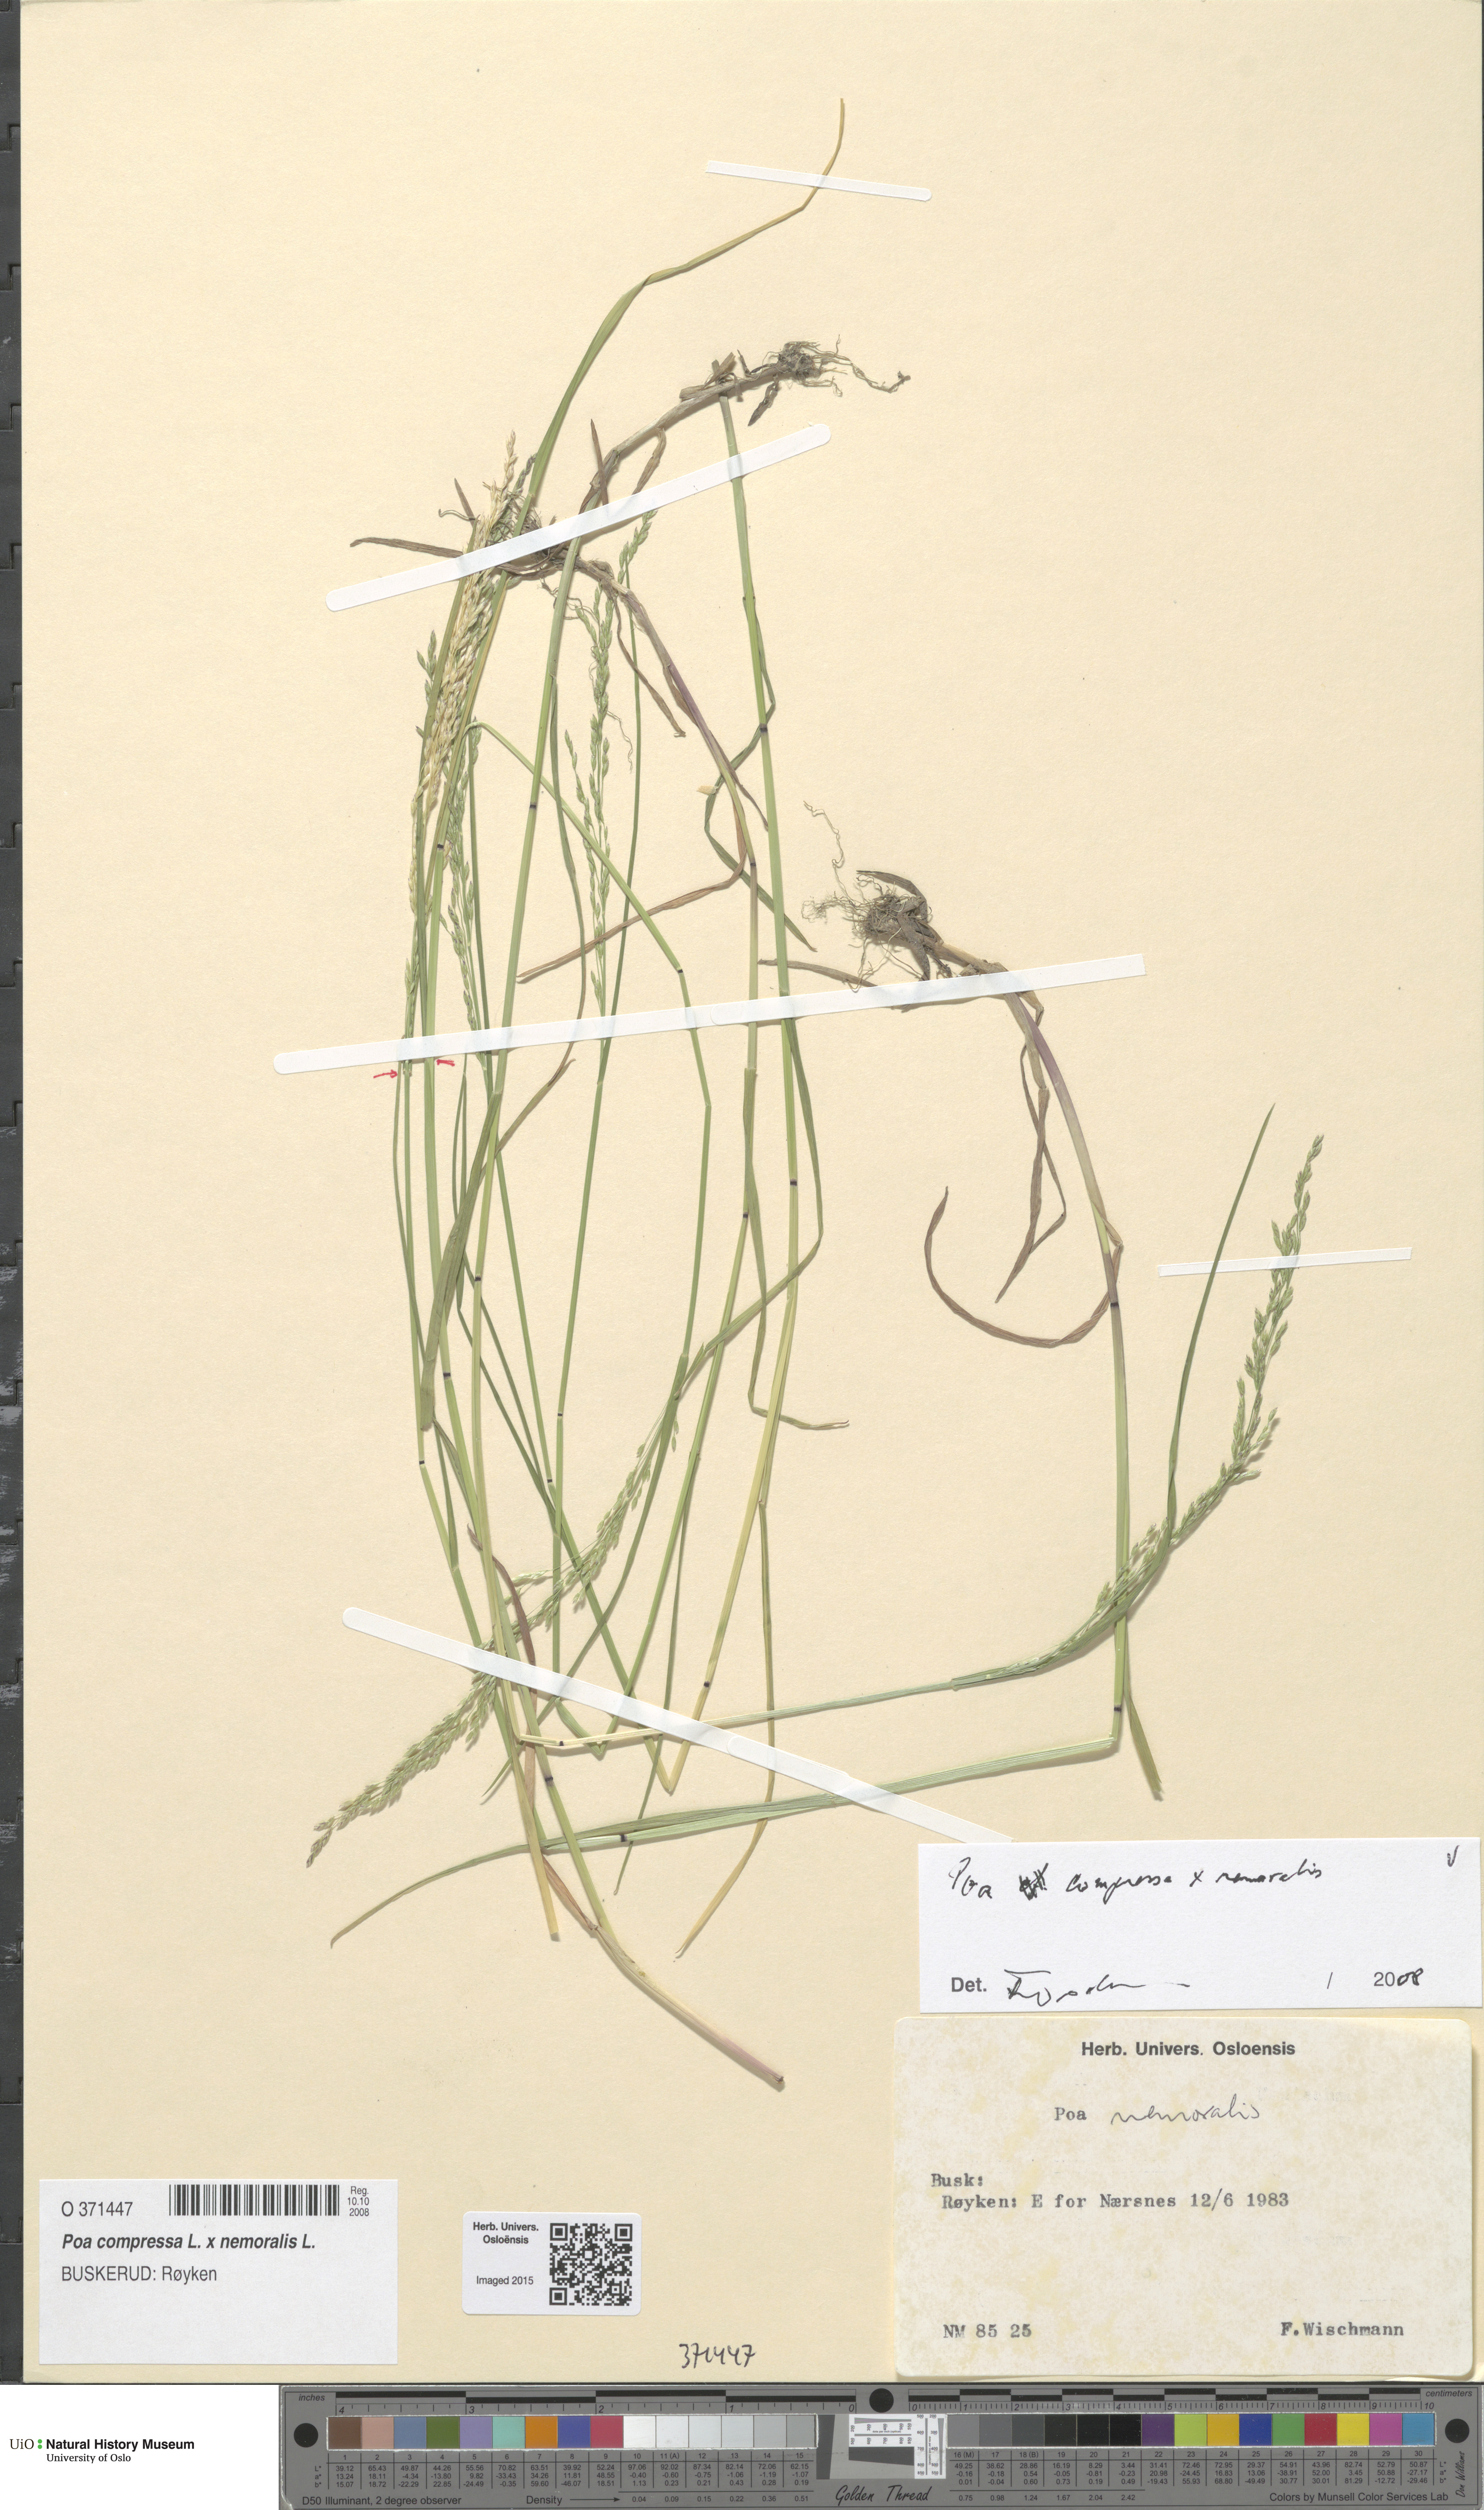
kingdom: Plantae
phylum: Tracheophyta
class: Liliopsida
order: Poales
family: Poaceae
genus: Poa
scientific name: Poa
